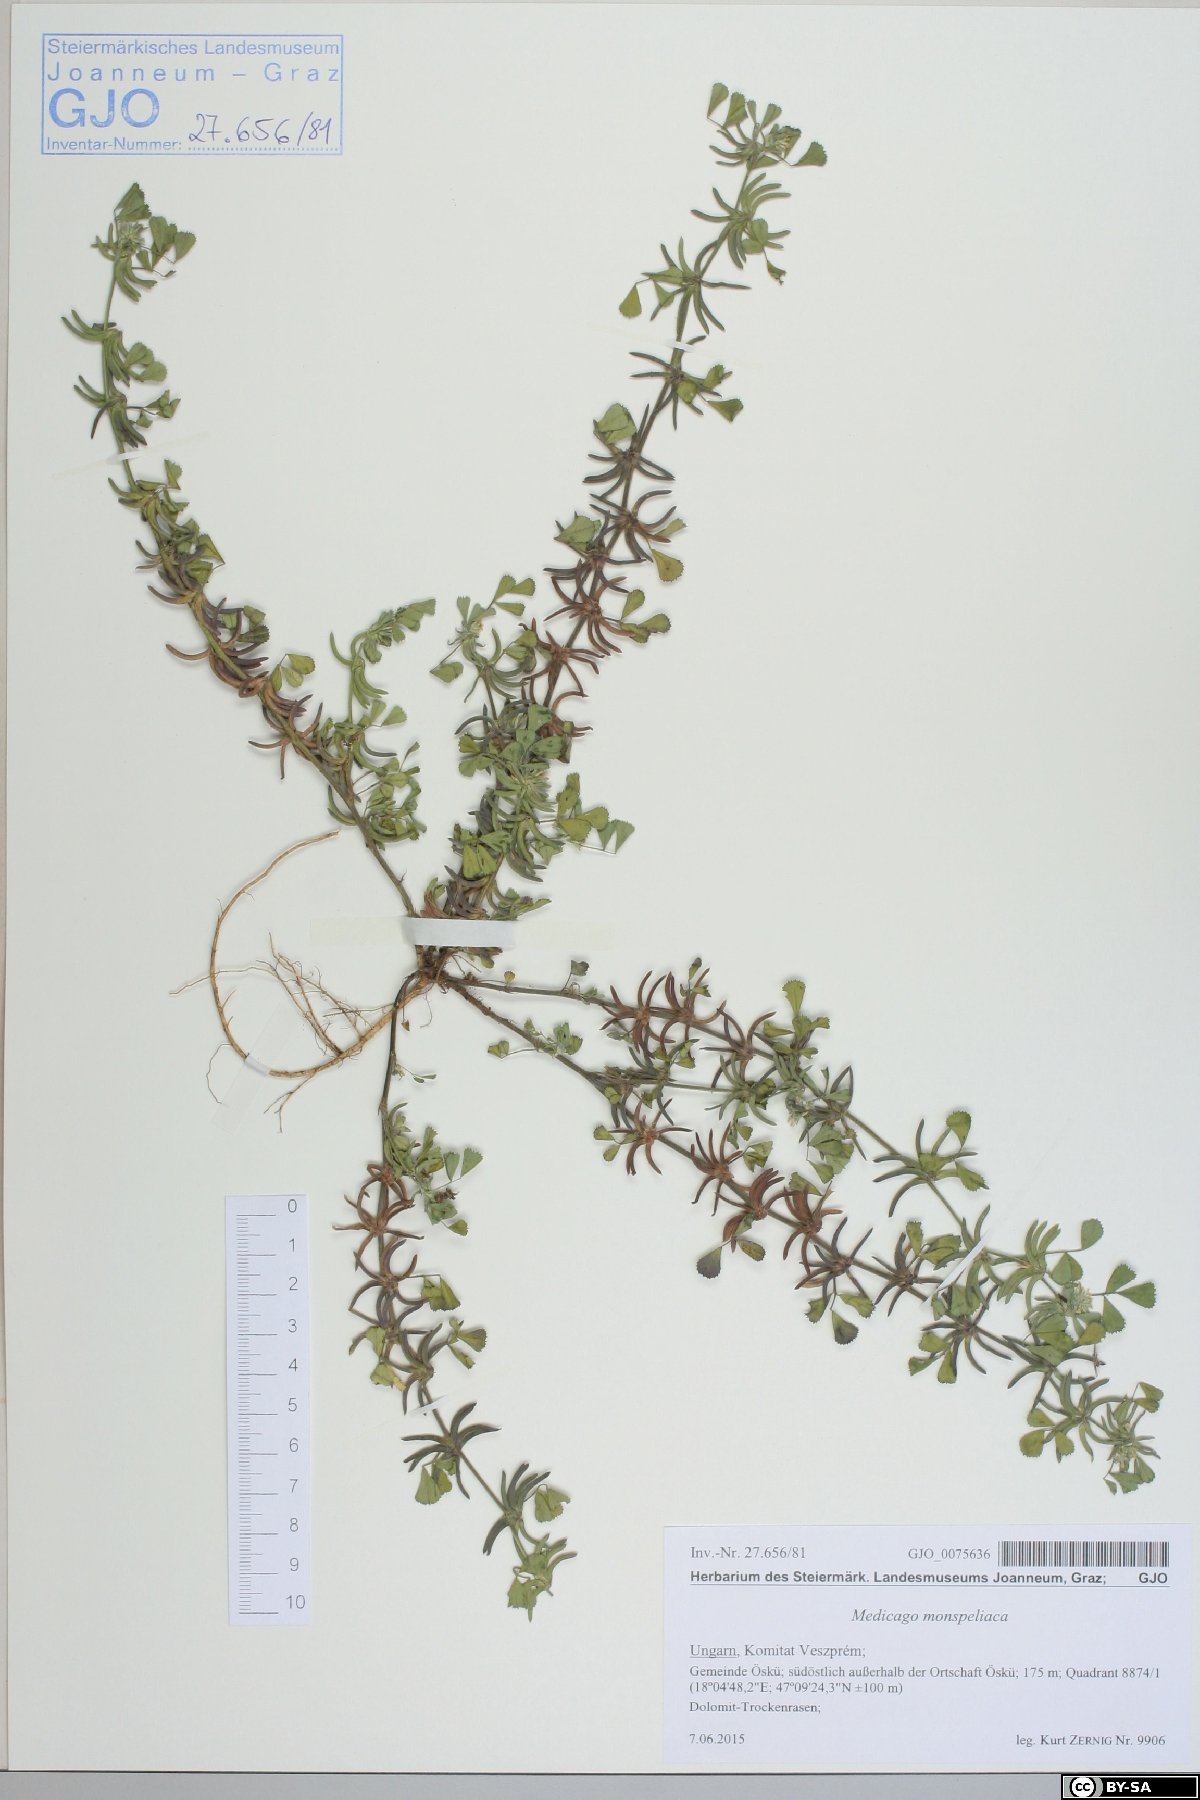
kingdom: Plantae
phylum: Tracheophyta
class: Magnoliopsida
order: Fabales
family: Fabaceae
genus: Medicago
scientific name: Medicago monspeliaca
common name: Hairy medick
